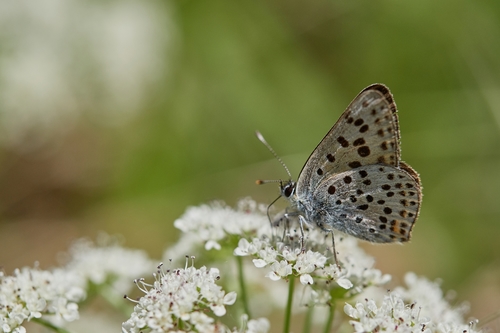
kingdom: Animalia
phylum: Arthropoda
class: Insecta
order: Lepidoptera
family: Lycaenidae
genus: Loweia
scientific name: Loweia tityrus
